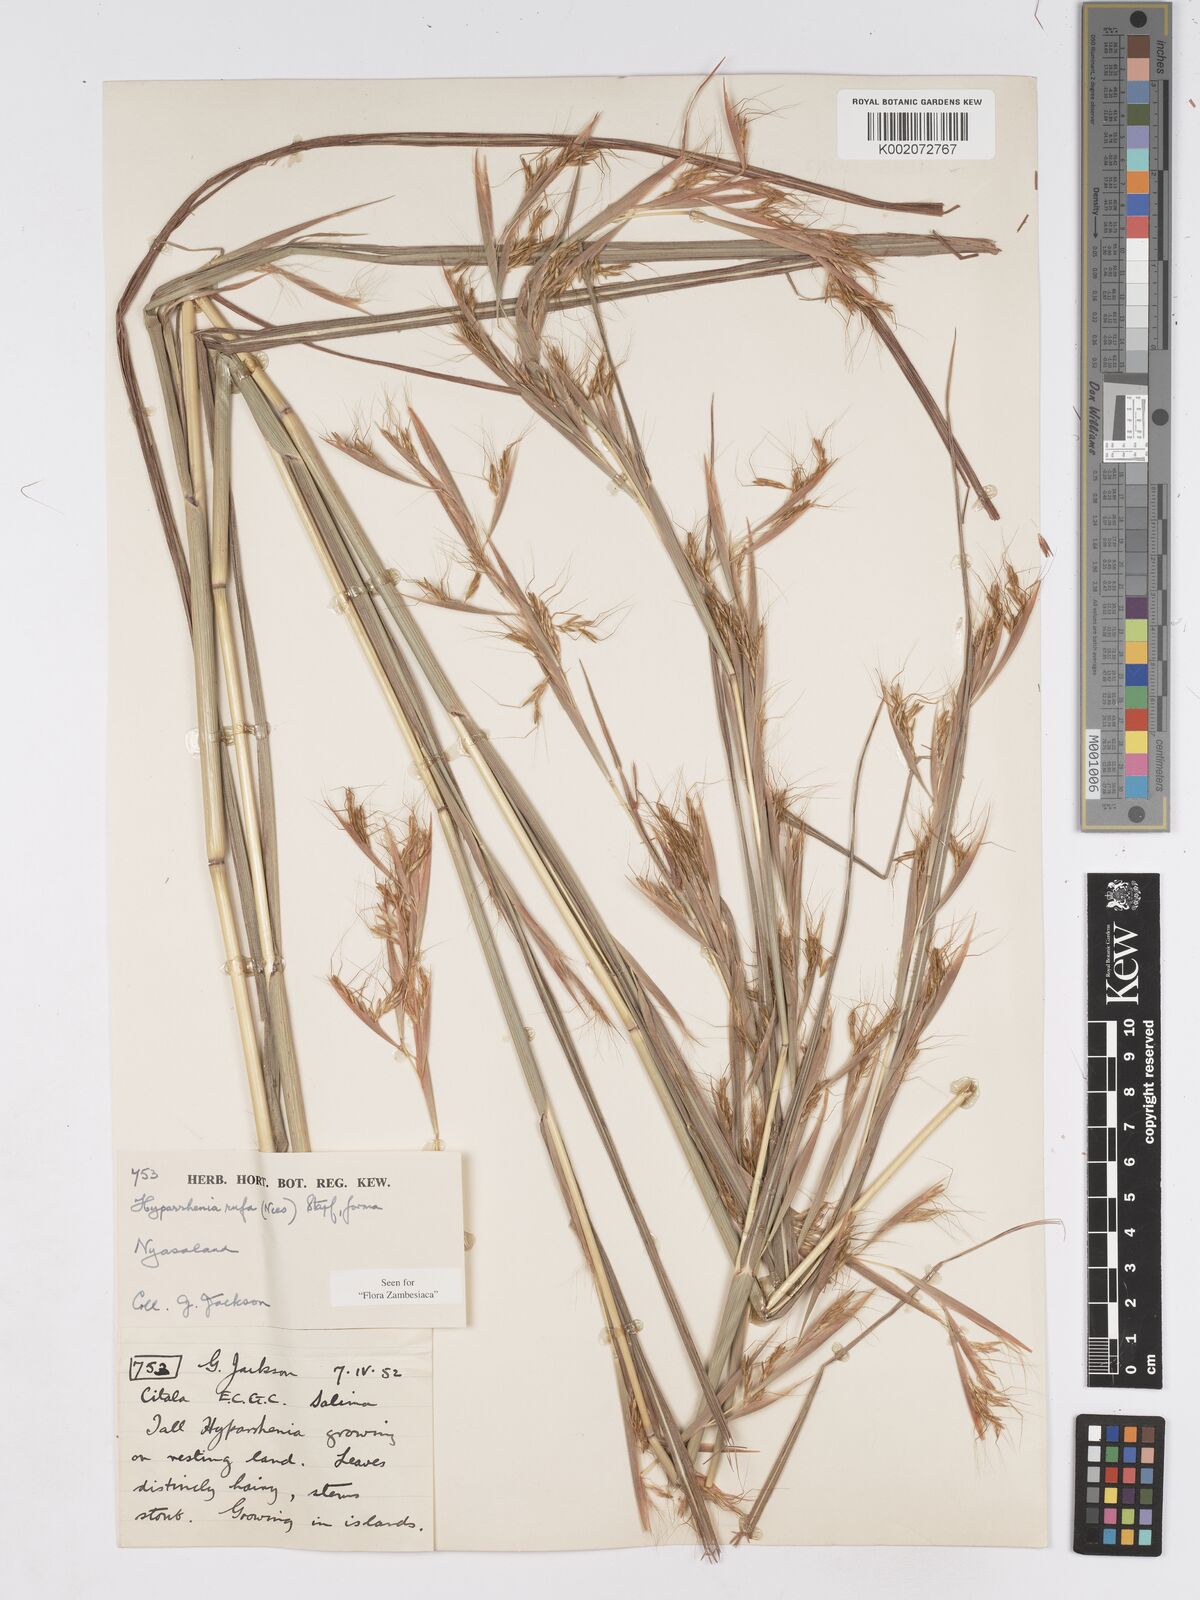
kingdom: Plantae
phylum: Tracheophyta
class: Liliopsida
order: Poales
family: Poaceae
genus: Hyparrhenia
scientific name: Hyparrhenia rufa
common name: Jaraguagrass
